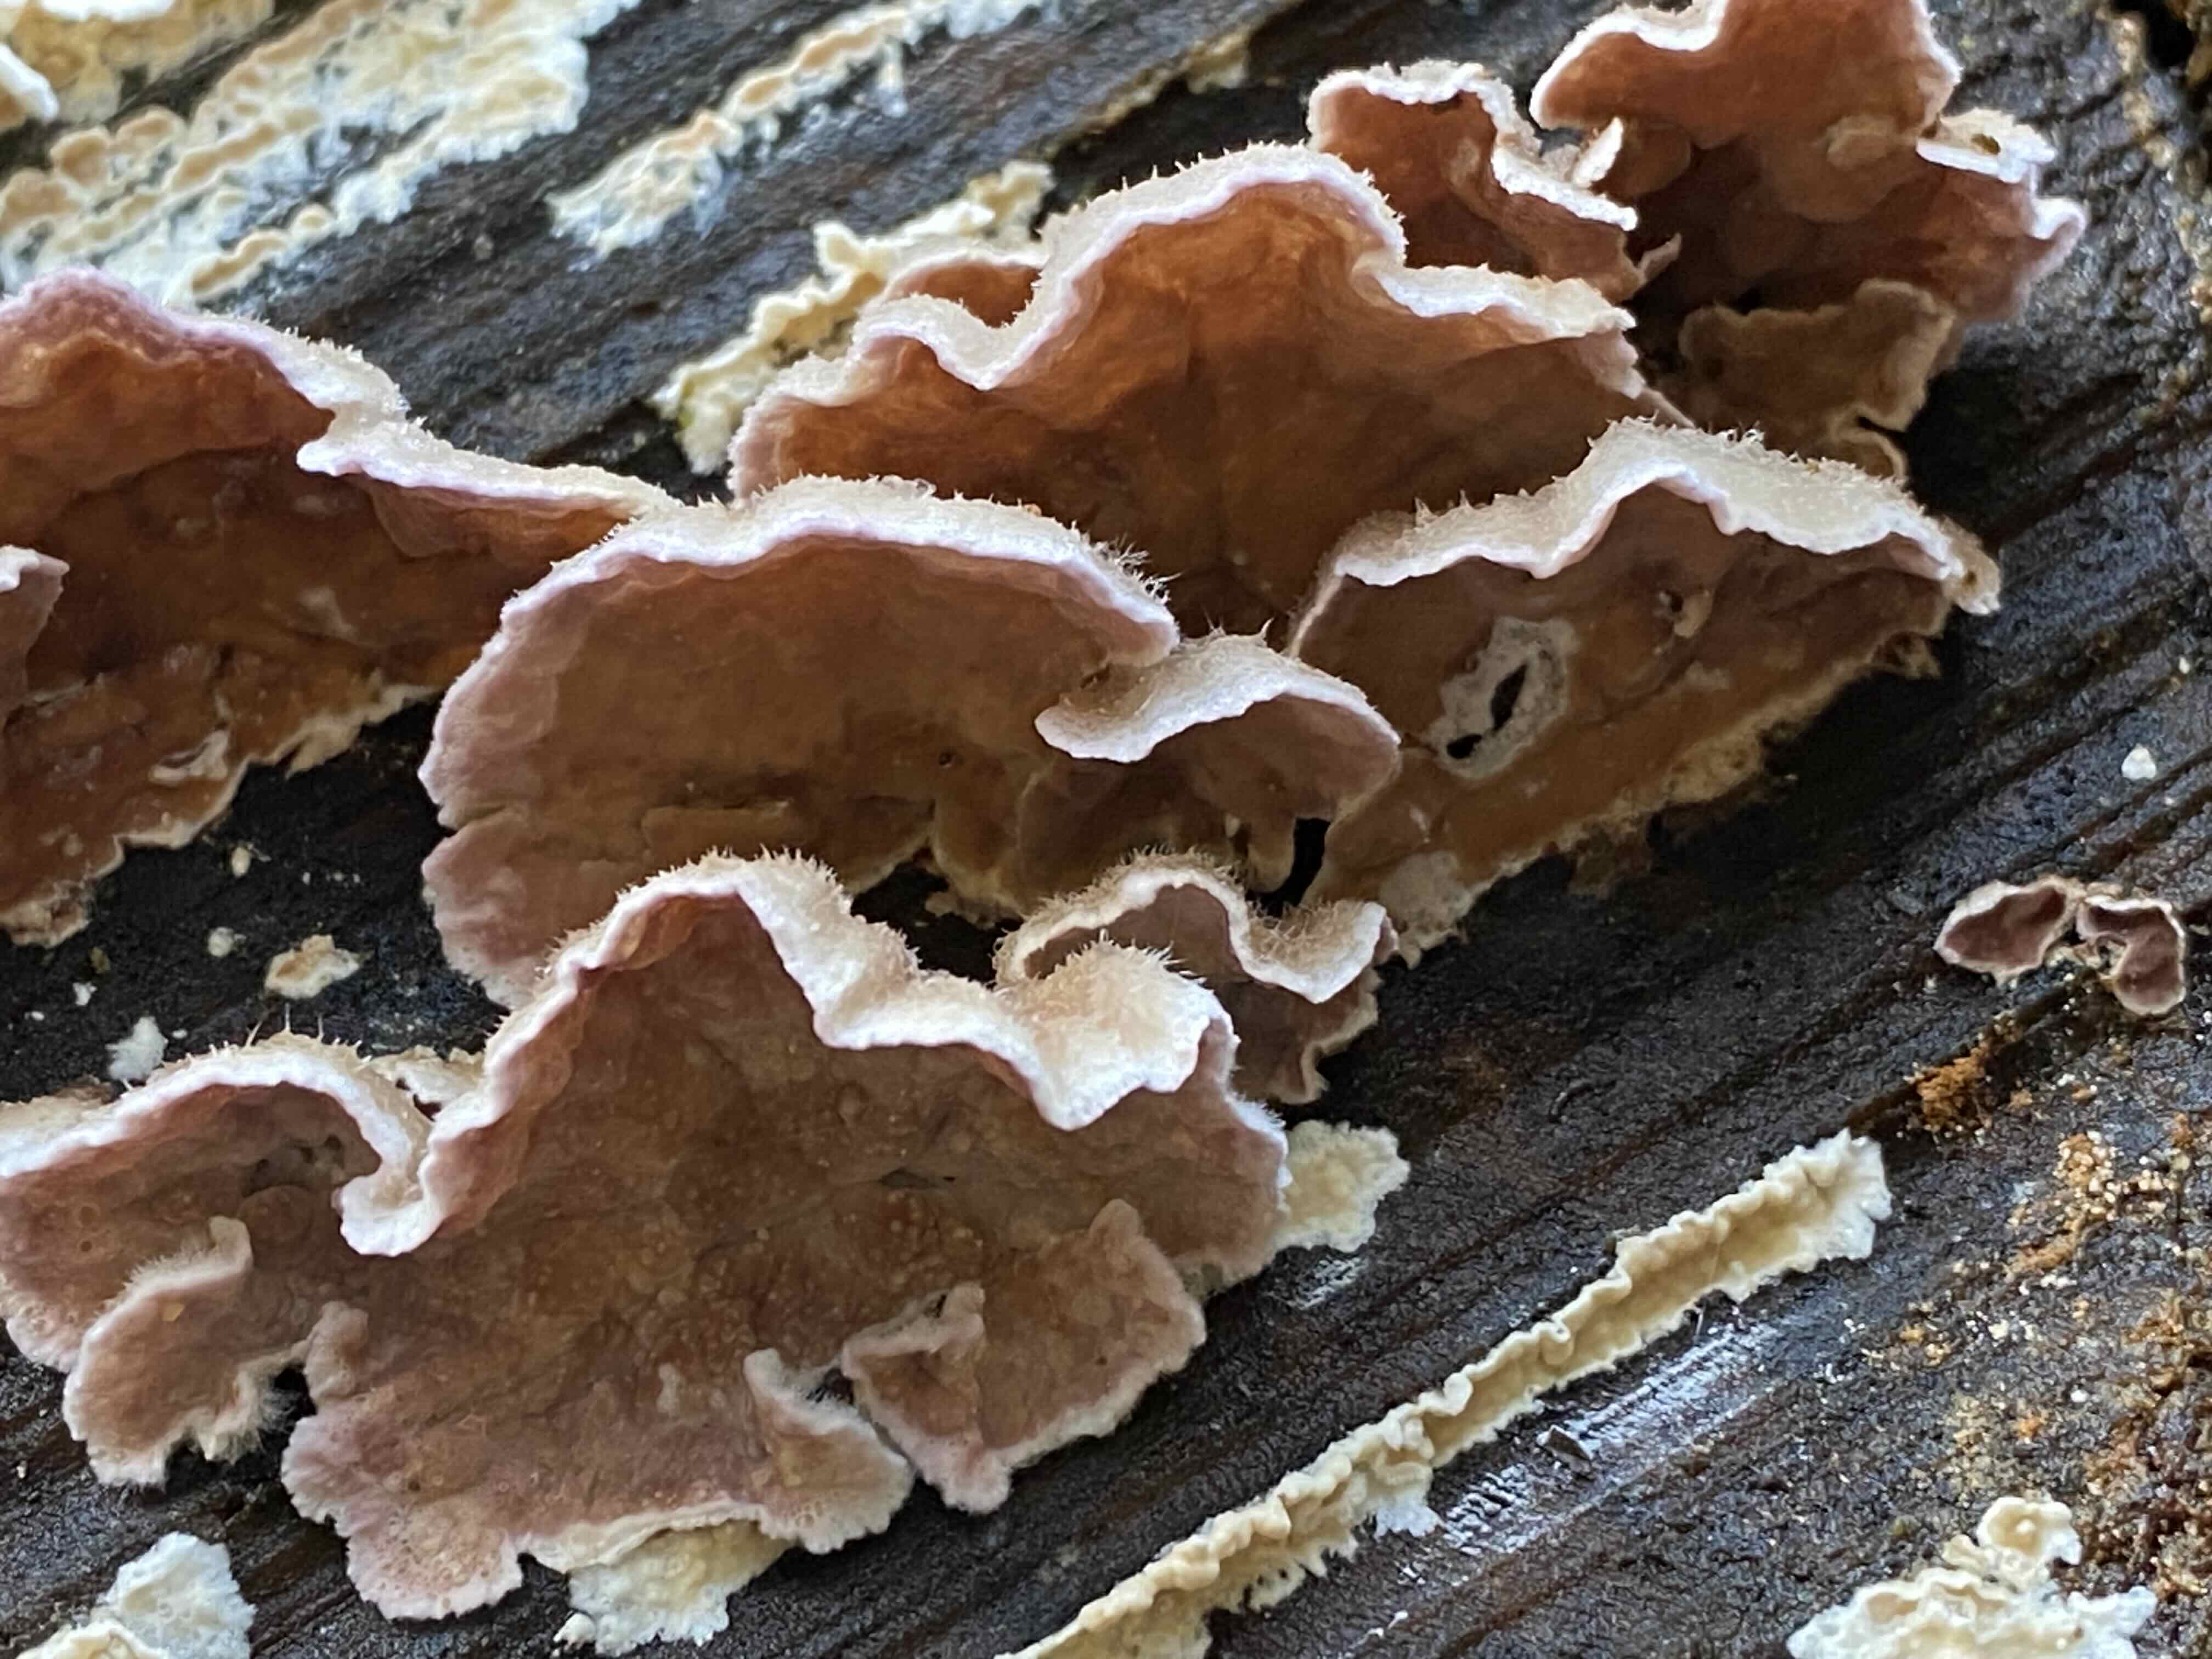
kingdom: Fungi
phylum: Basidiomycota
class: Agaricomycetes
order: Agaricales
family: Cyphellaceae
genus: Chondrostereum
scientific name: Chondrostereum purpureum
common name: purpurlædersvamp
